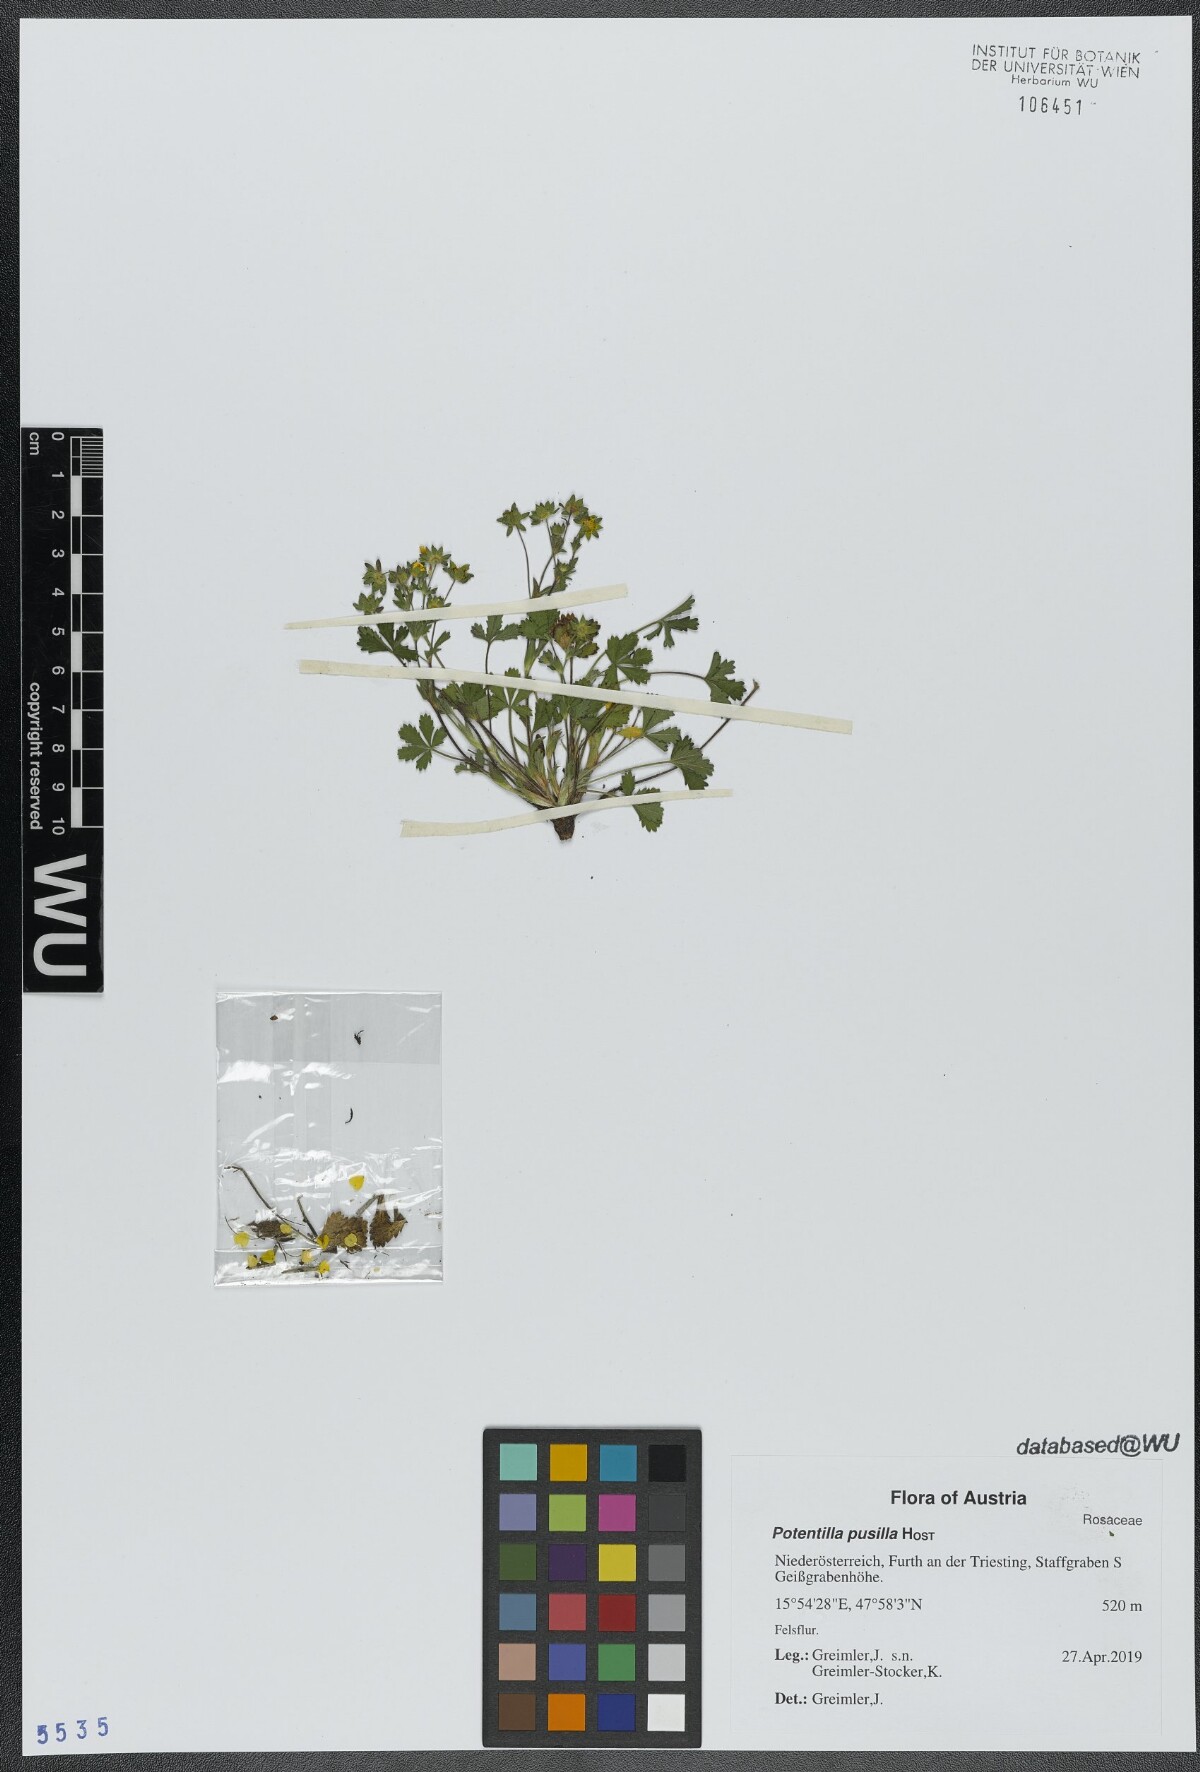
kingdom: Plantae
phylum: Tracheophyta
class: Magnoliopsida
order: Rosales
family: Rosaceae
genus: Potentilla
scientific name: Potentilla pusilla
